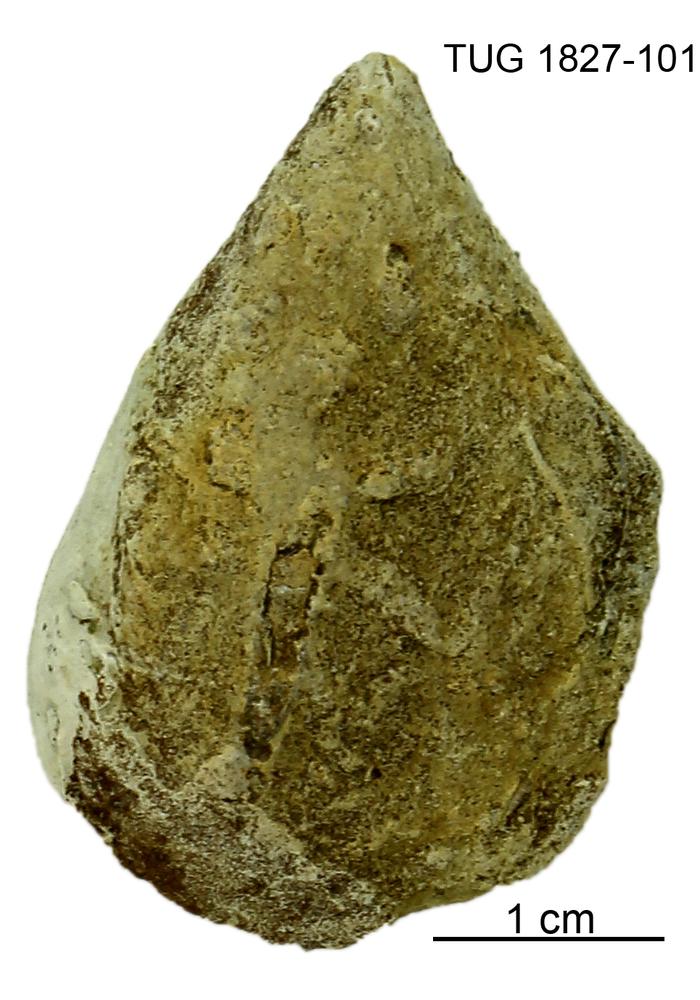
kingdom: Animalia
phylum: Mollusca
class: Bivalvia
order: Myalinida
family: Ambonychiidae
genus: Cleionychia
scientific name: Cleionychia
